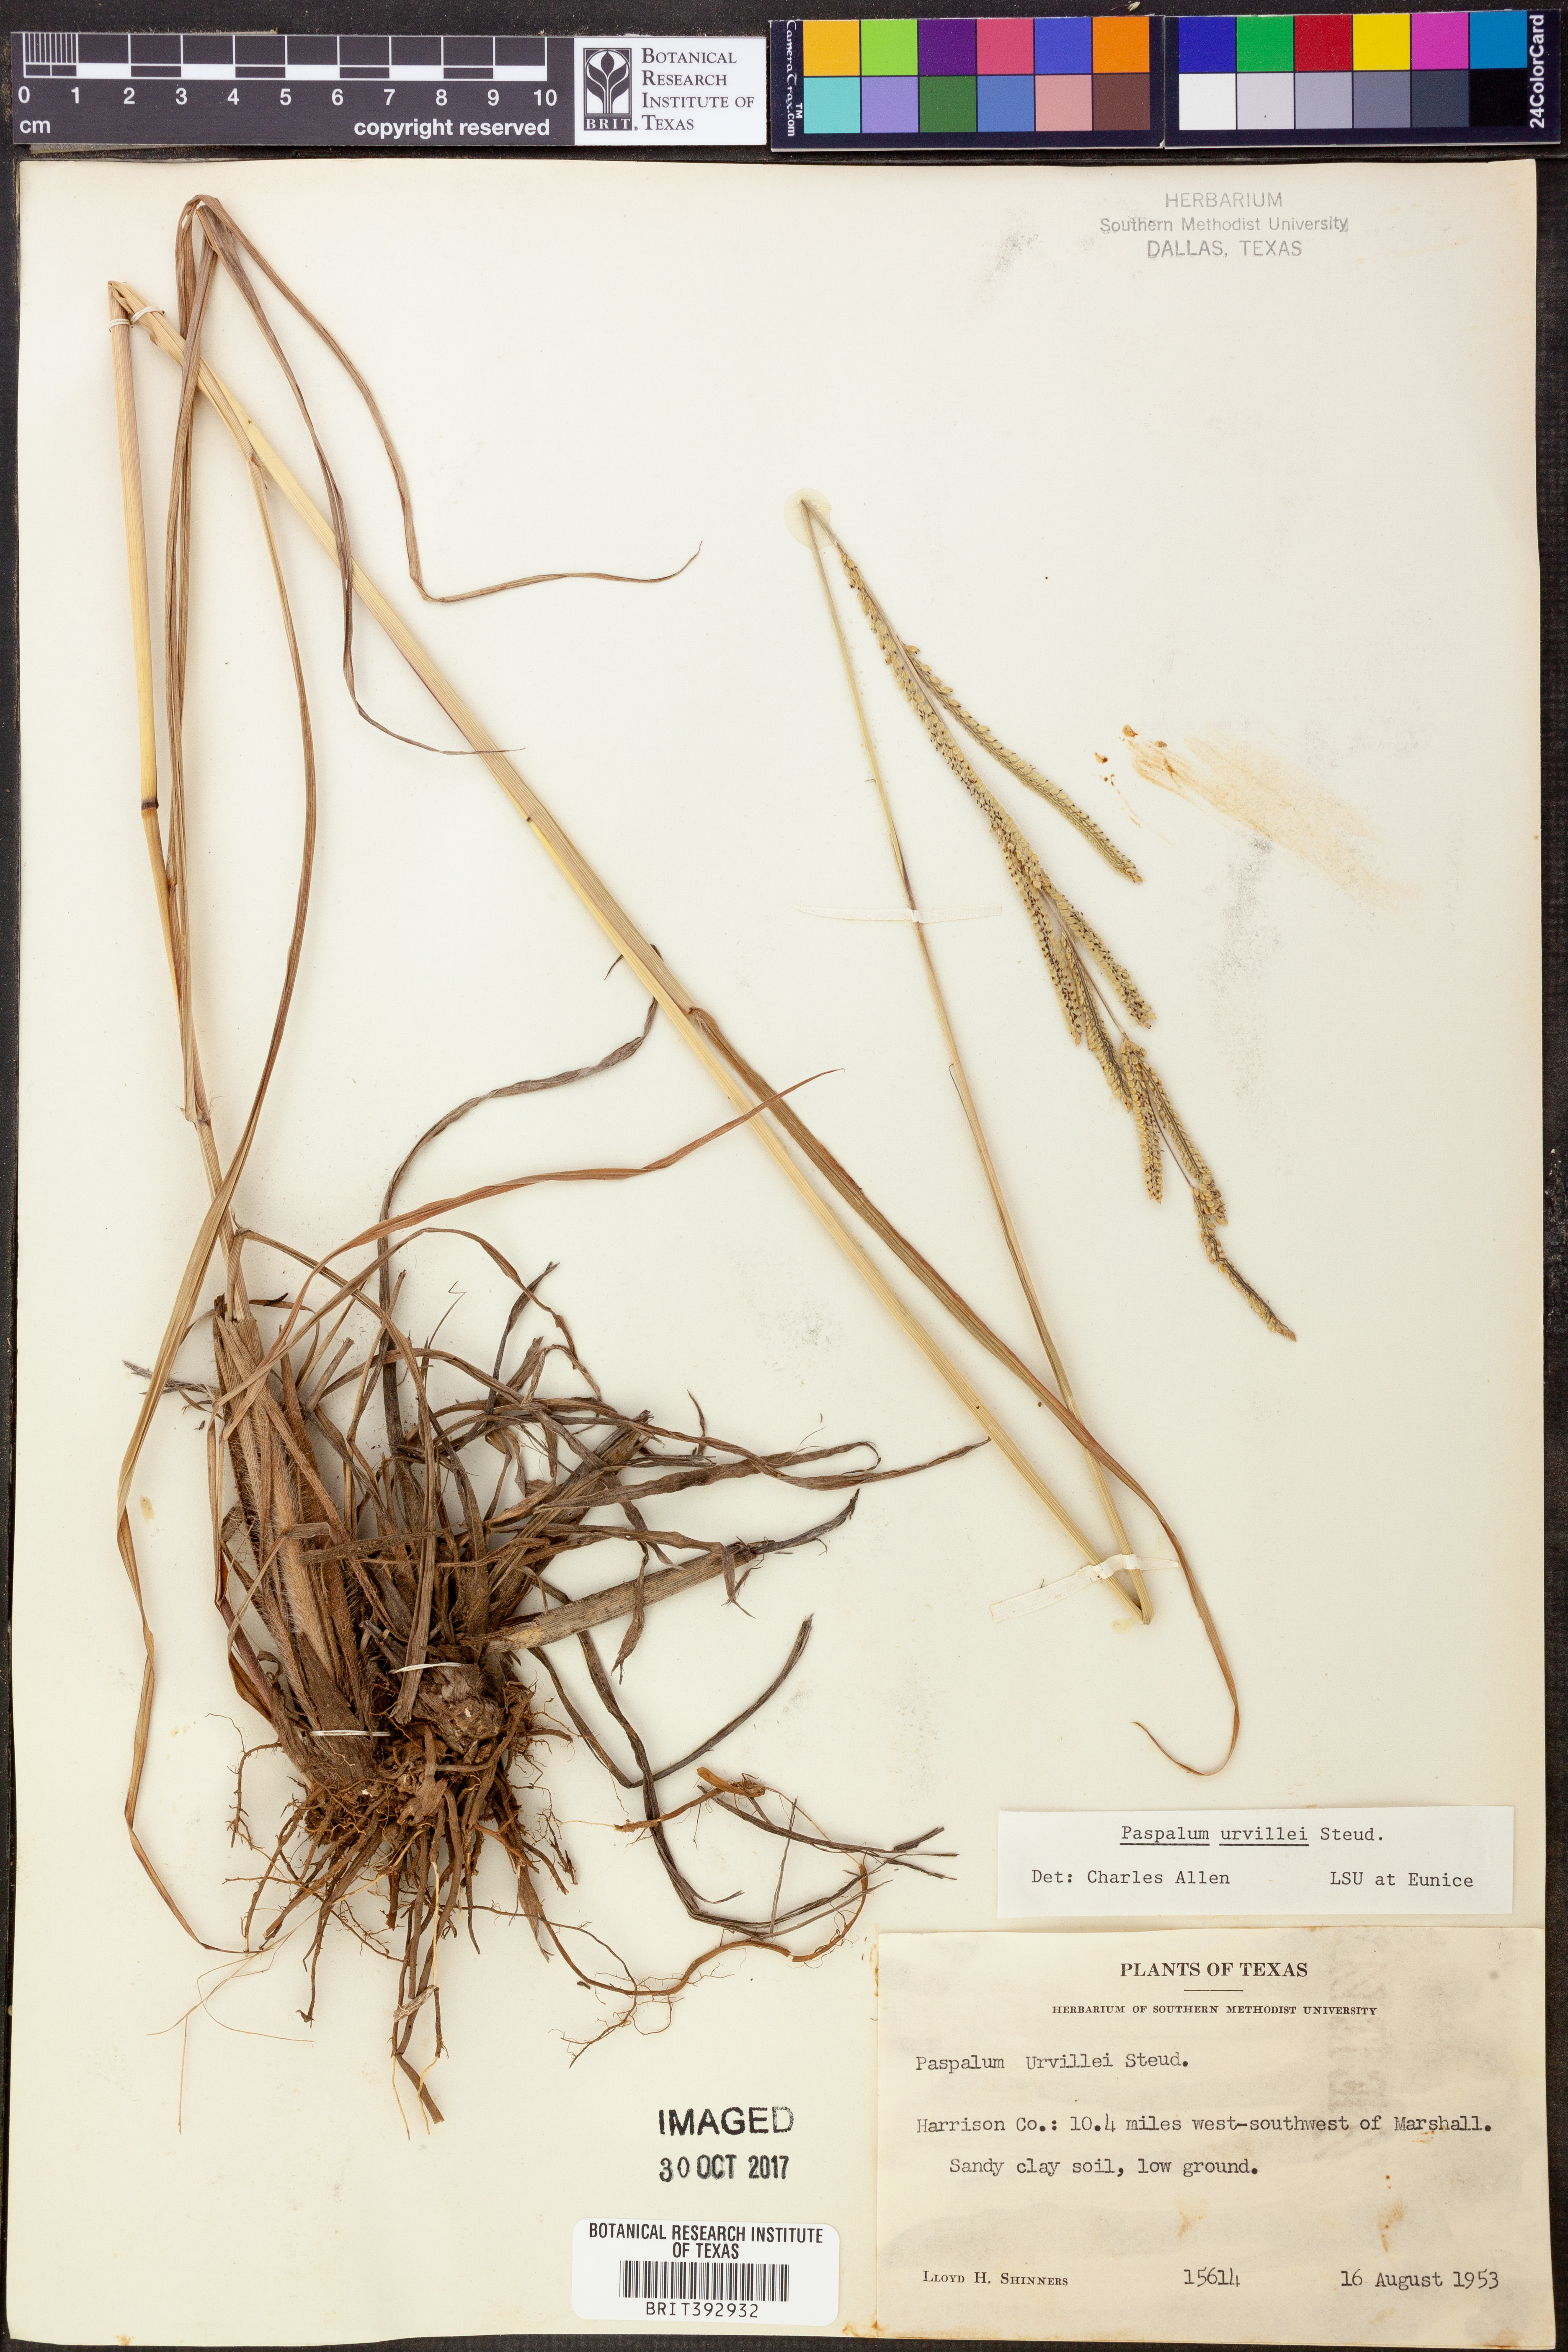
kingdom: Plantae
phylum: Tracheophyta
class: Liliopsida
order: Poales
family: Poaceae
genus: Paspalum
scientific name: Paspalum urvillei
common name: Vasey's grass
